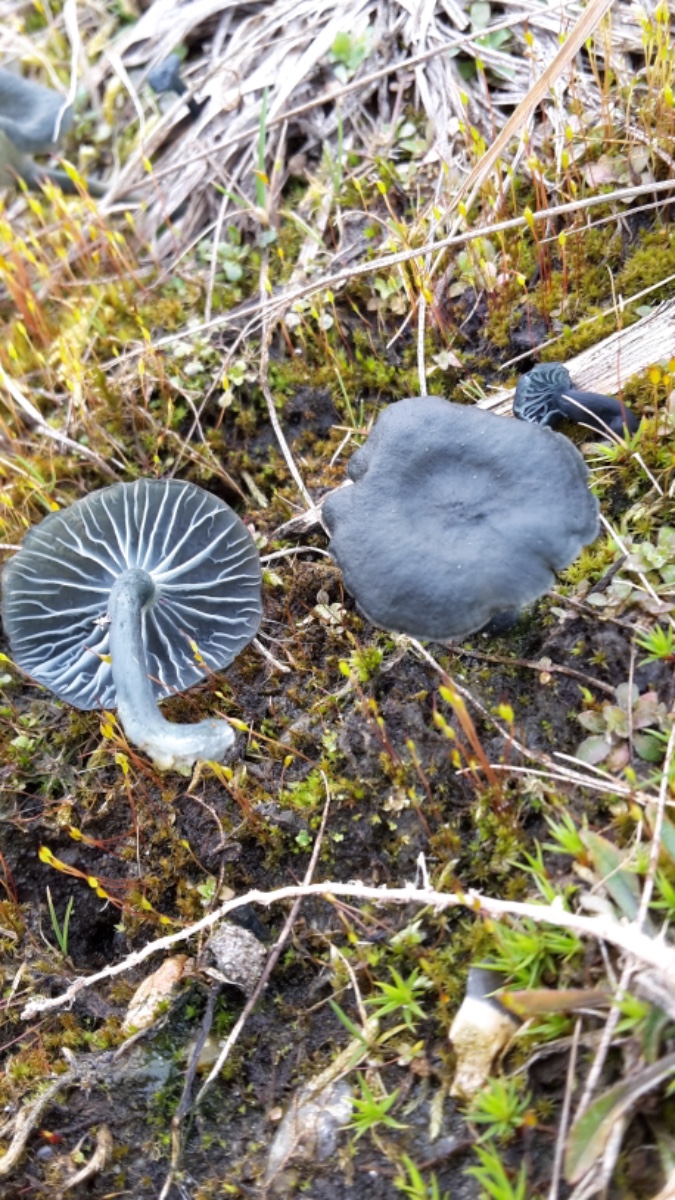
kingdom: Fungi
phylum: Basidiomycota
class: Agaricomycetes
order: Agaricales
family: Hygrophoraceae
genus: Arrhenia
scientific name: Arrhenia chlorocyanea
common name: blågrøn fontænehat
